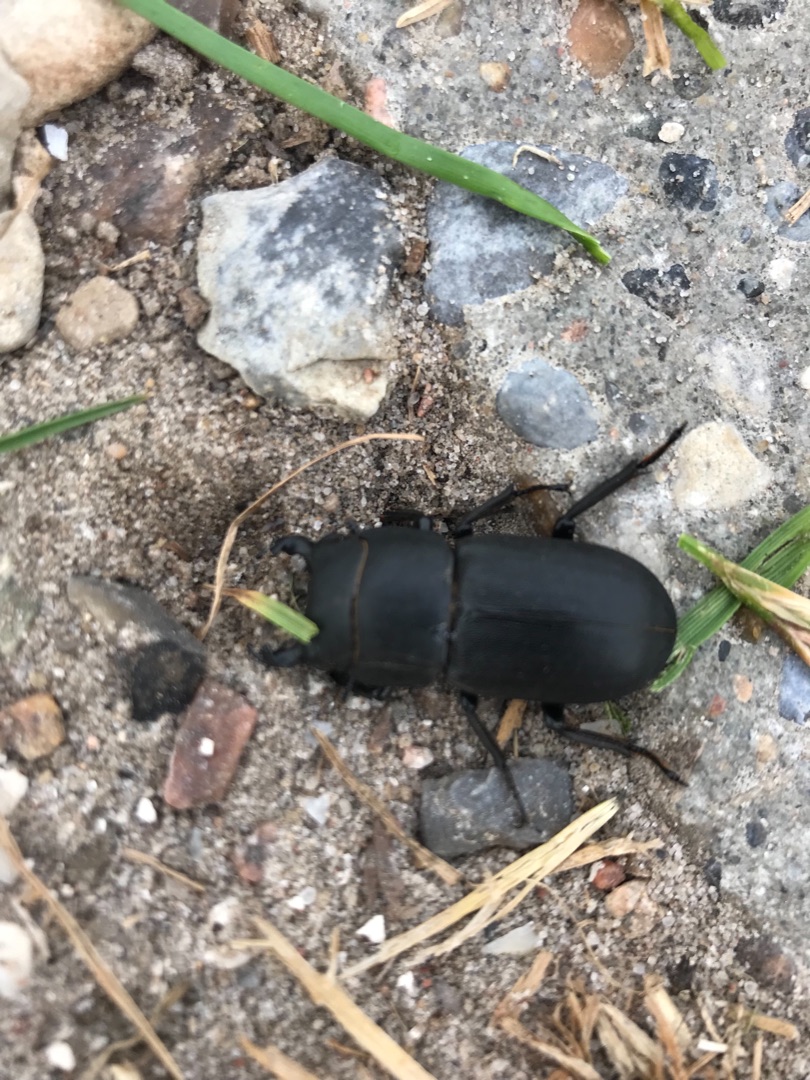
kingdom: Animalia
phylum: Arthropoda
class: Insecta
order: Coleoptera
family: Lucanidae
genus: Dorcus
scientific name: Dorcus parallelipipedus
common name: Bøghjort
